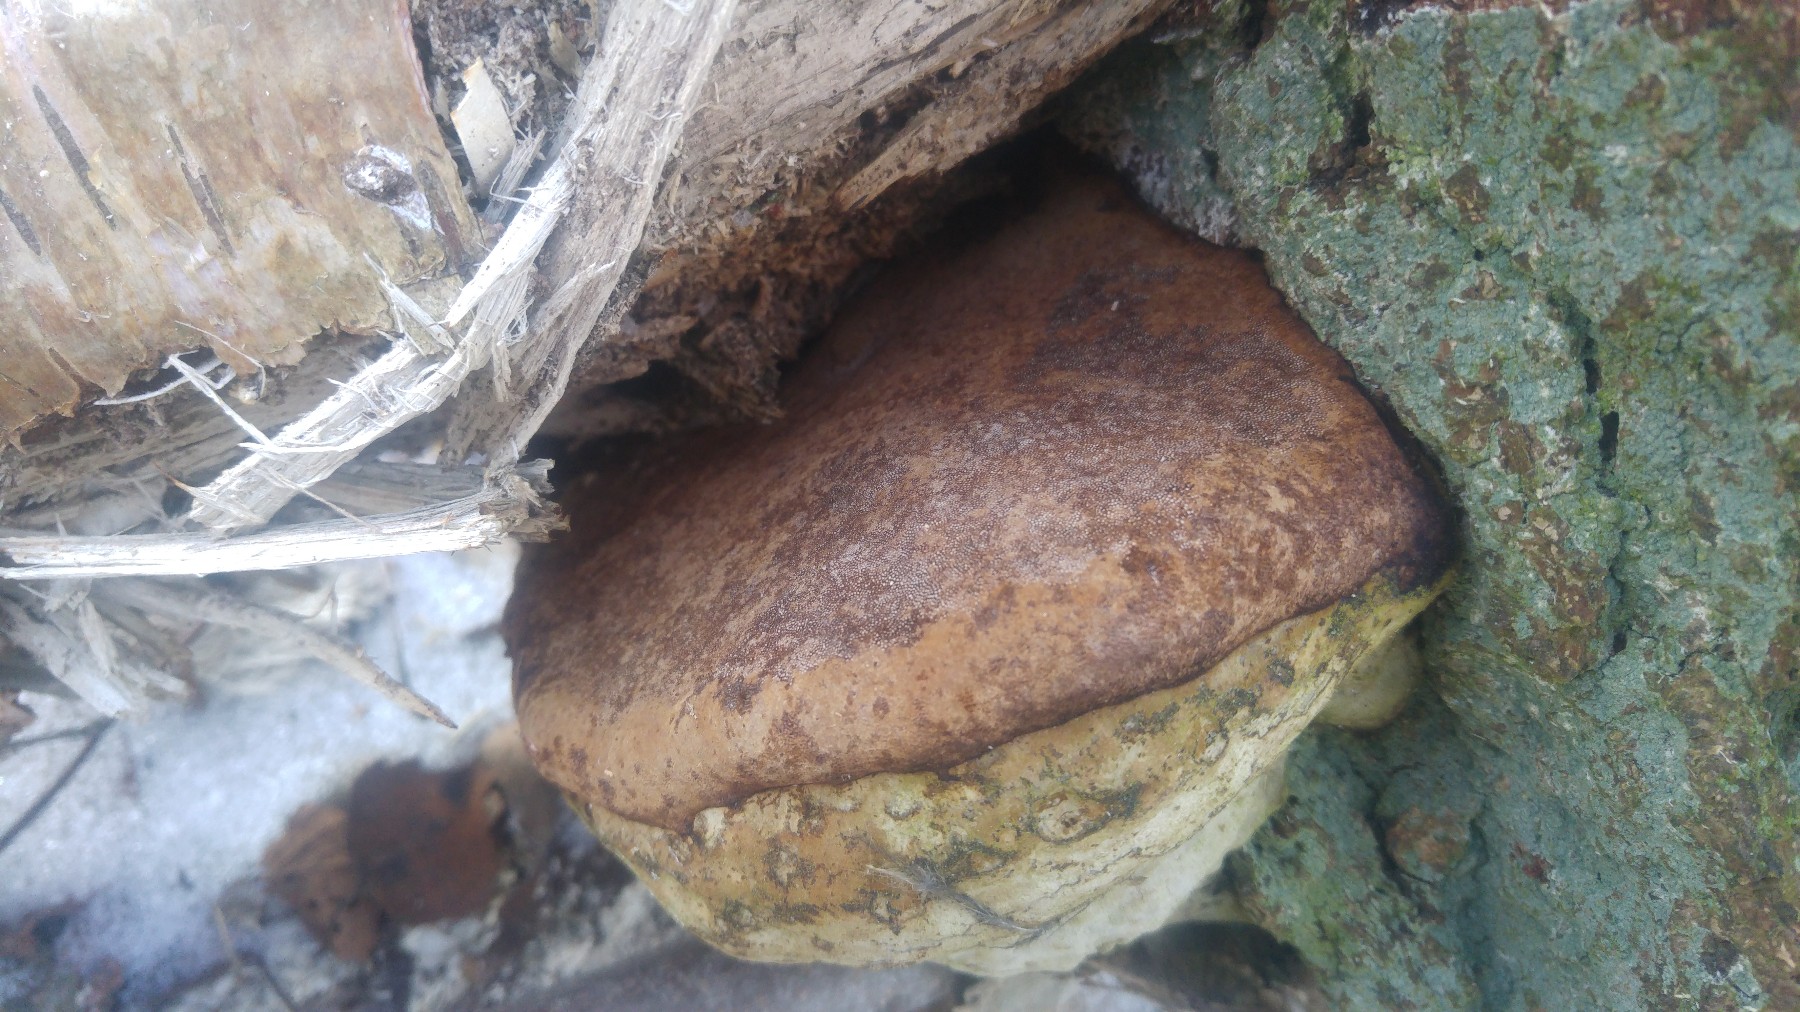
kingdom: Fungi
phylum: Basidiomycota
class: Agaricomycetes
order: Polyporales
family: Polyporaceae
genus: Ganoderma
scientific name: Ganoderma
